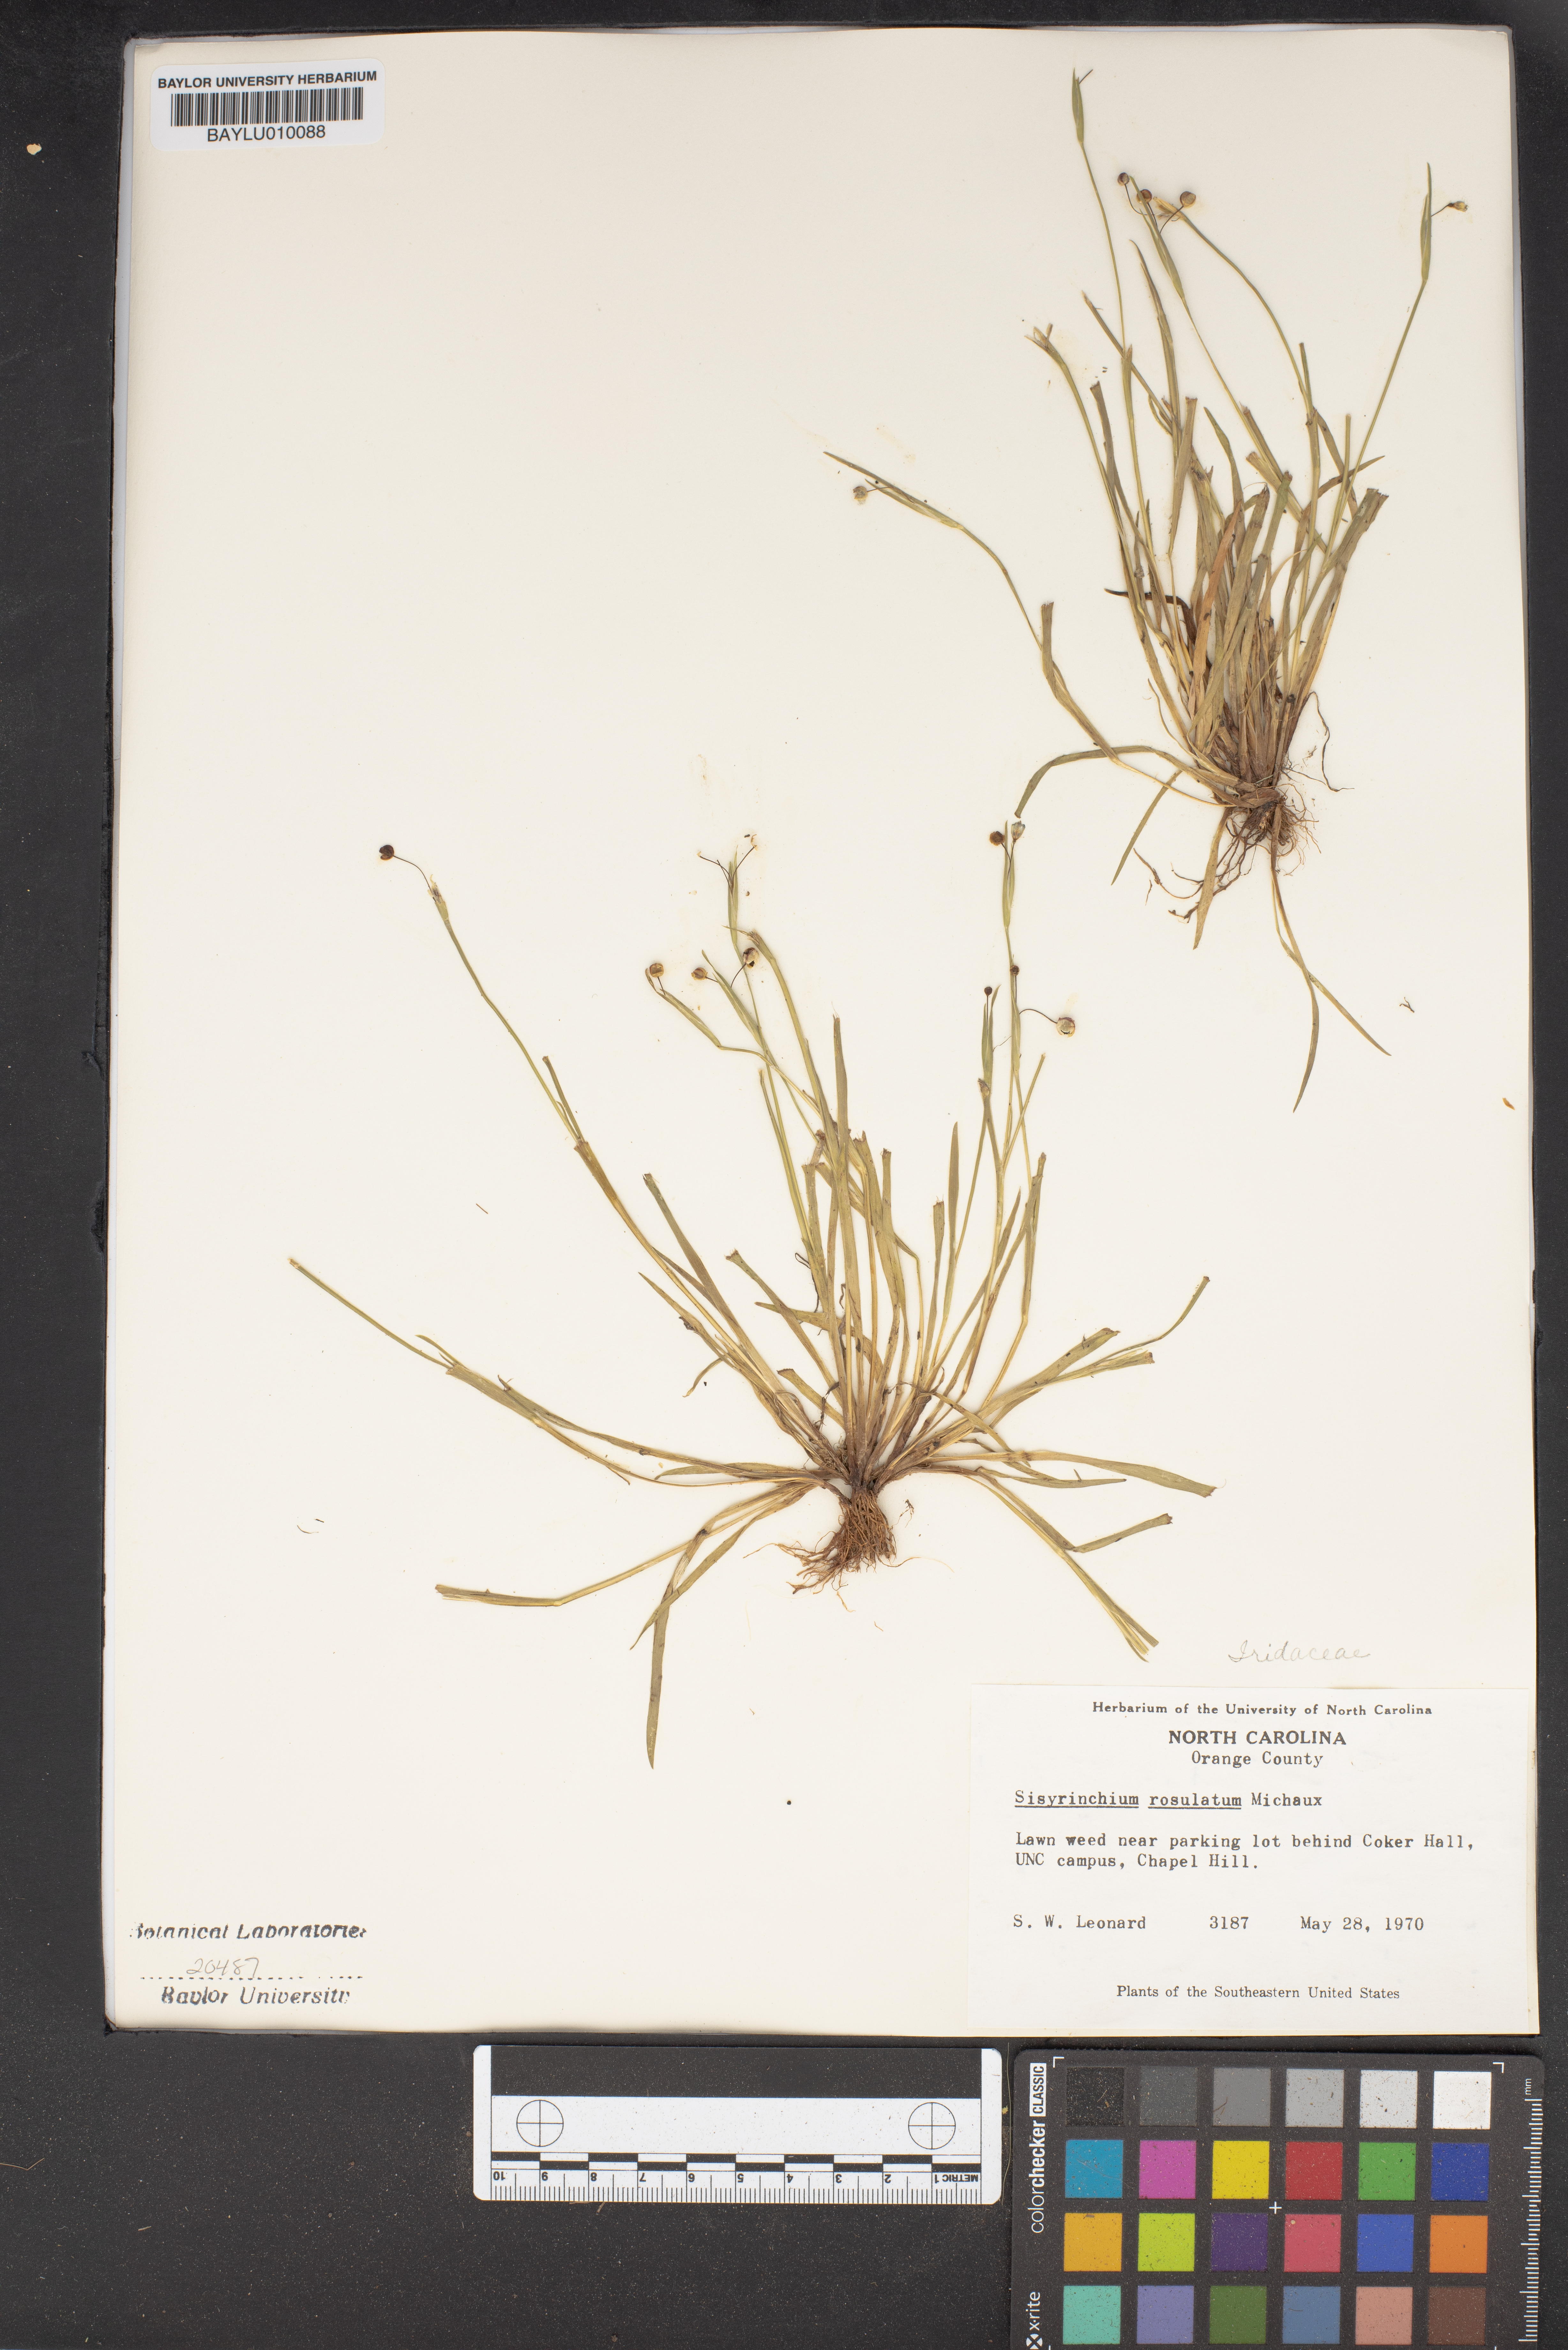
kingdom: Plantae
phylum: Tracheophyta
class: Liliopsida
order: Asparagales
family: Iridaceae
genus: Sisyrinchium
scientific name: Sisyrinchium rosulatum
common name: Annual blue-eyed grass
